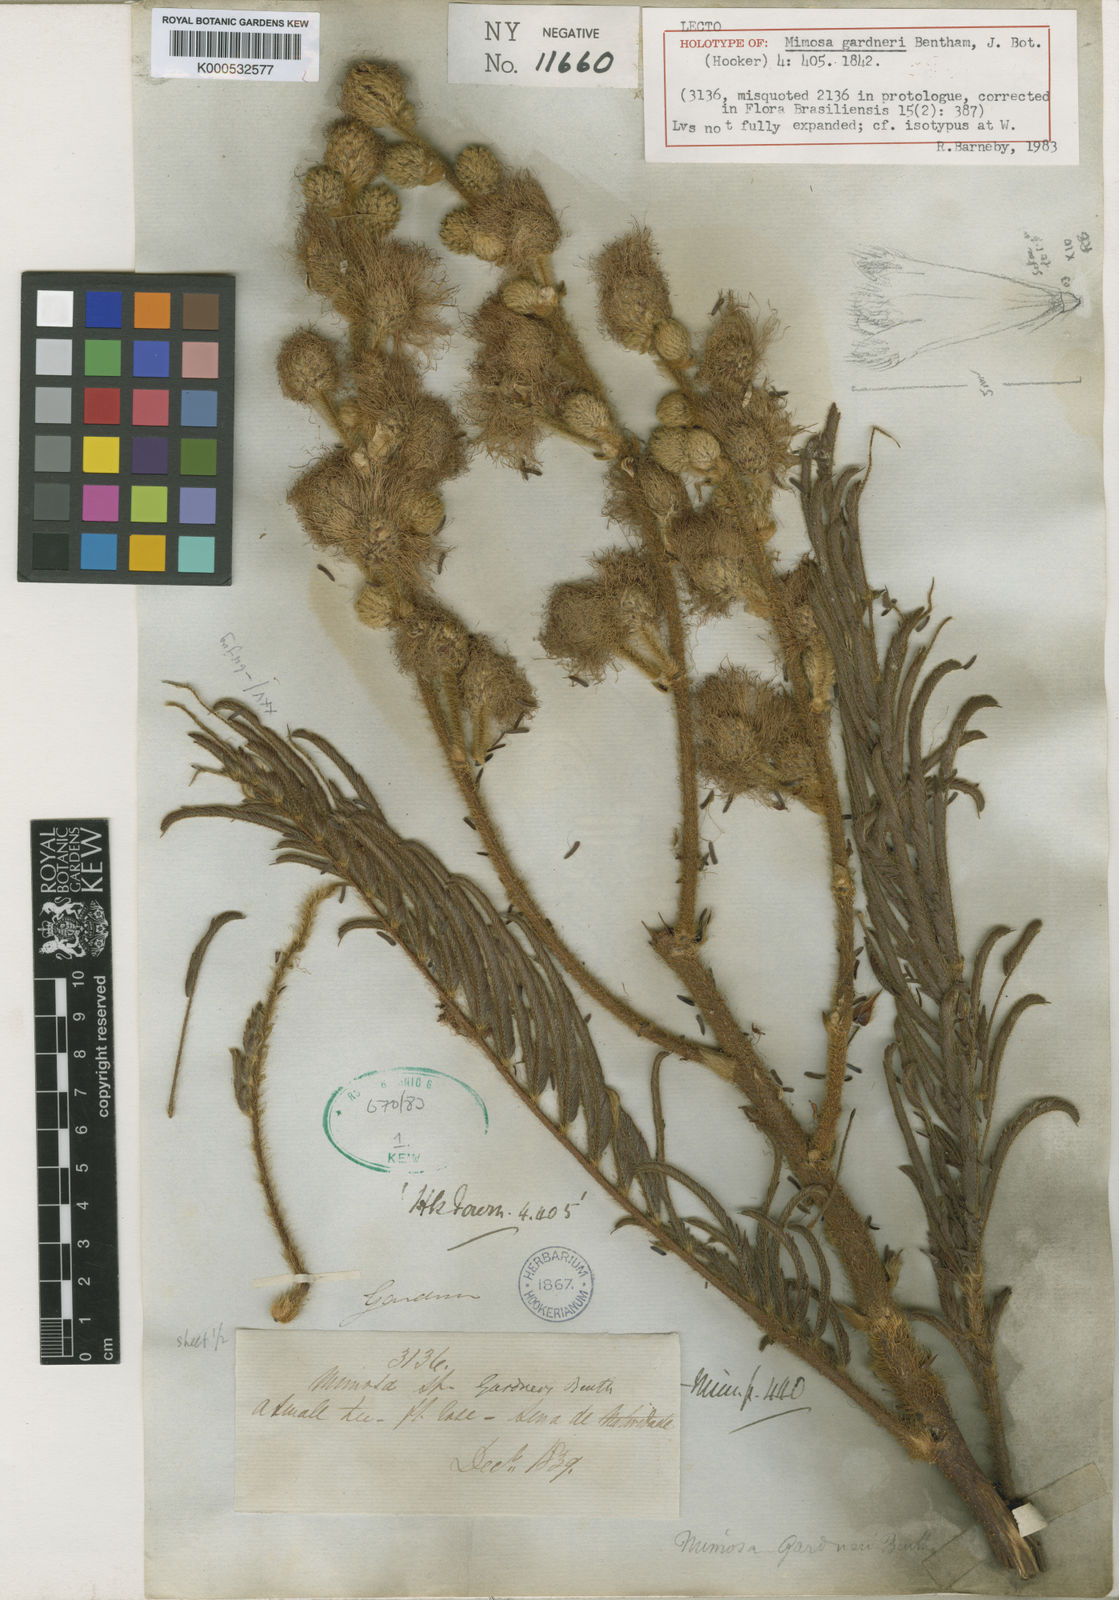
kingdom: Plantae
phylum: Tracheophyta
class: Magnoliopsida
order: Fabales
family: Fabaceae
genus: Mimosa
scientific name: Mimosa gardneri
